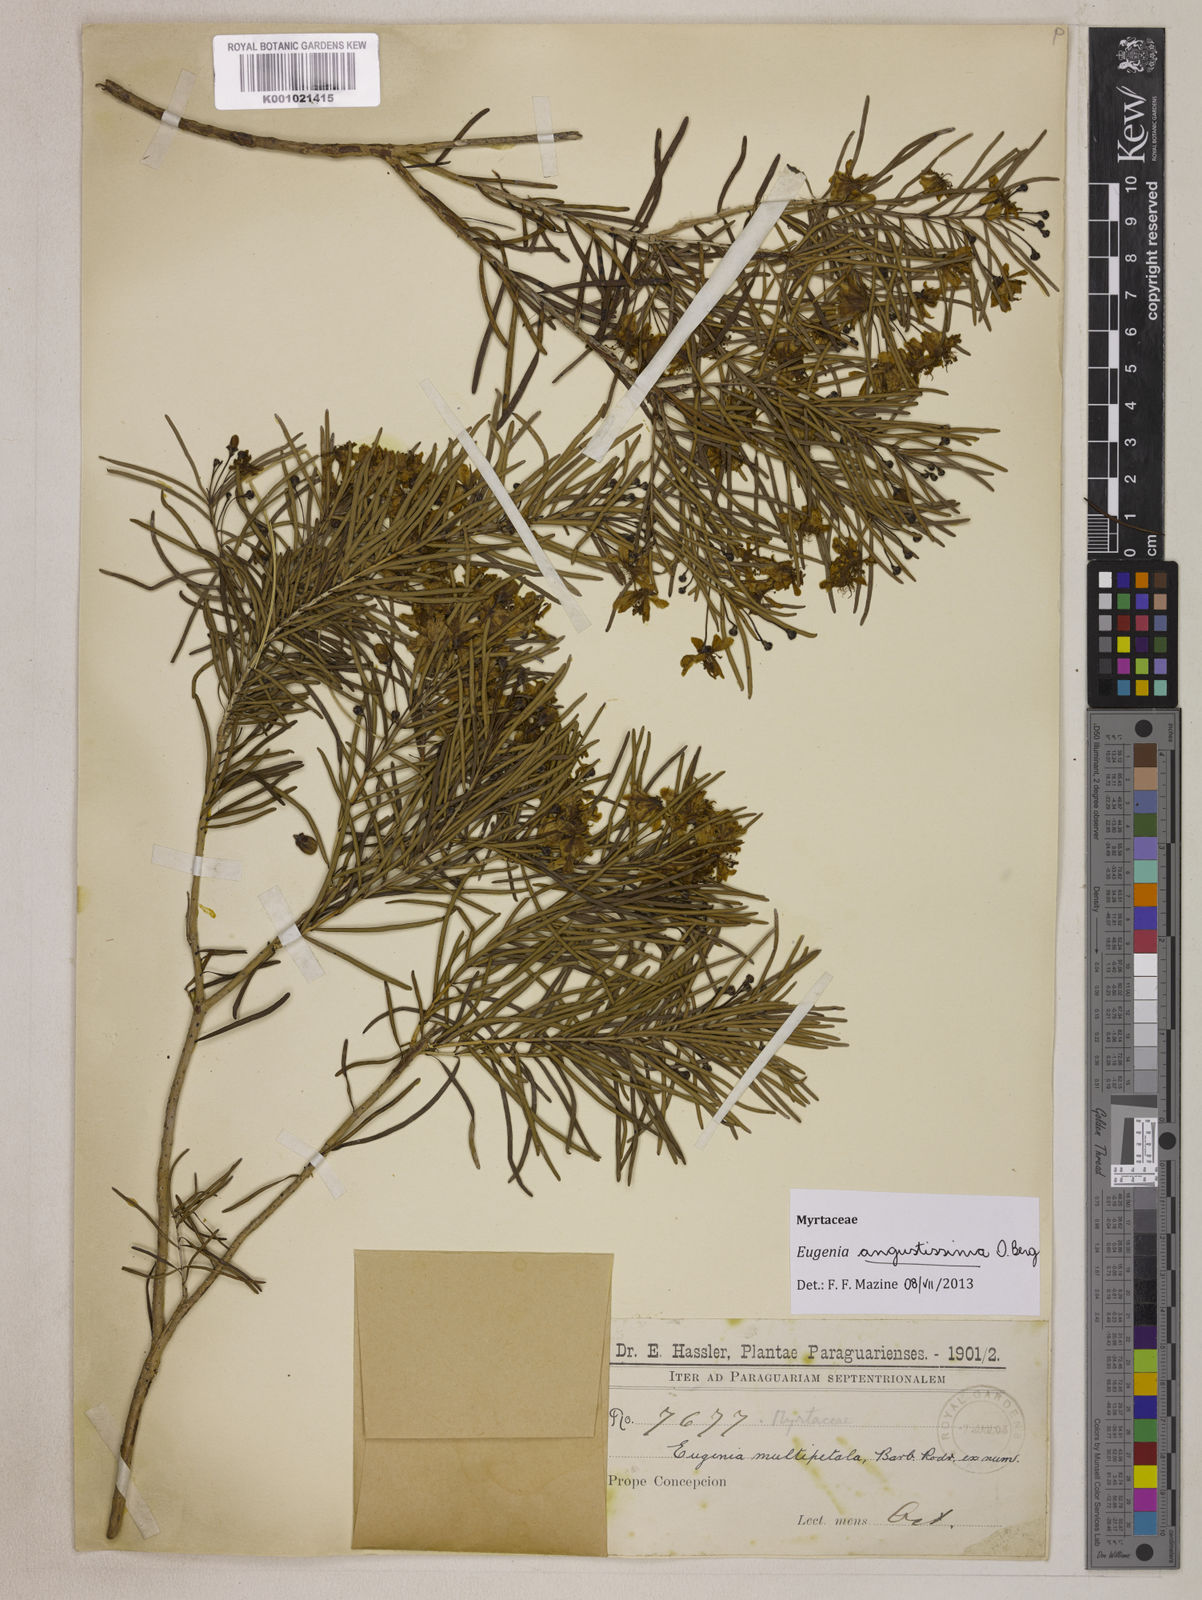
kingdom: Plantae
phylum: Tracheophyta
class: Magnoliopsida
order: Myrtales
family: Myrtaceae
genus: Eugenia
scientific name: Eugenia angustissima
